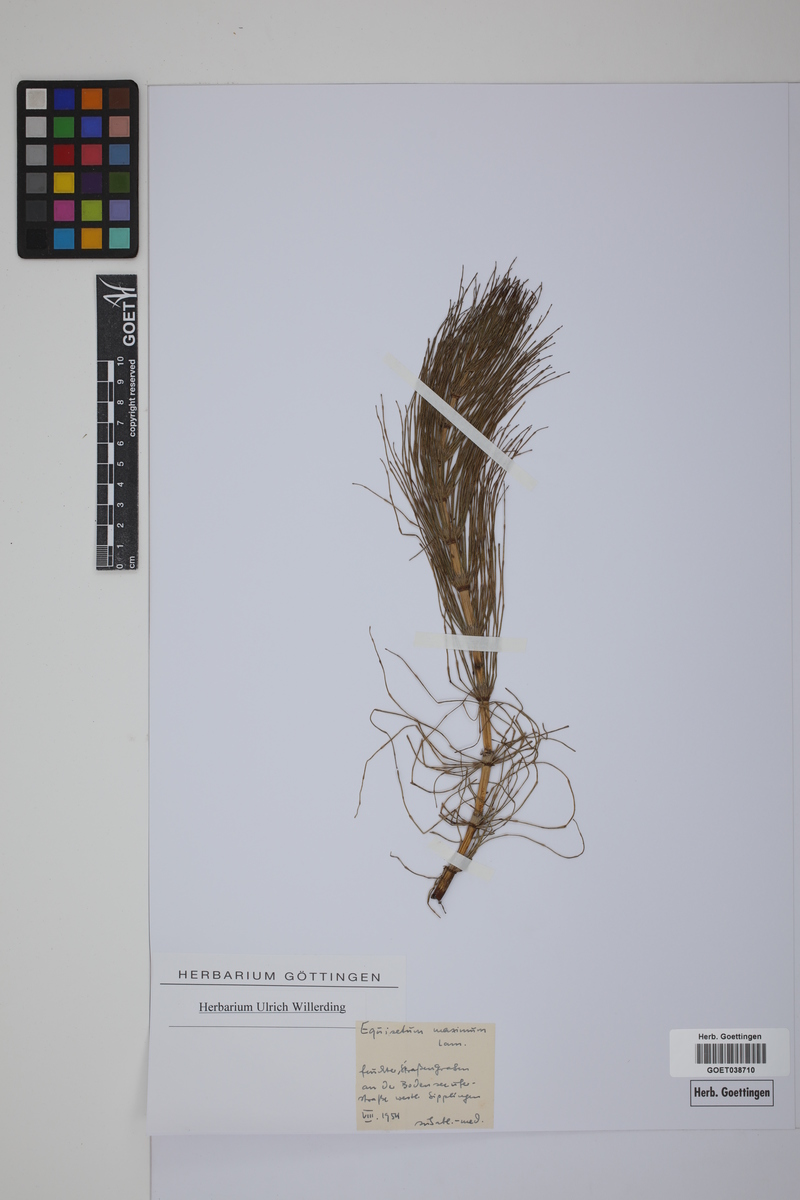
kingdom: Plantae
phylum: Tracheophyta
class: Polypodiopsida
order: Equisetales
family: Equisetaceae
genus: Equisetum
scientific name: Equisetum fluviatile
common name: Water horsetail
